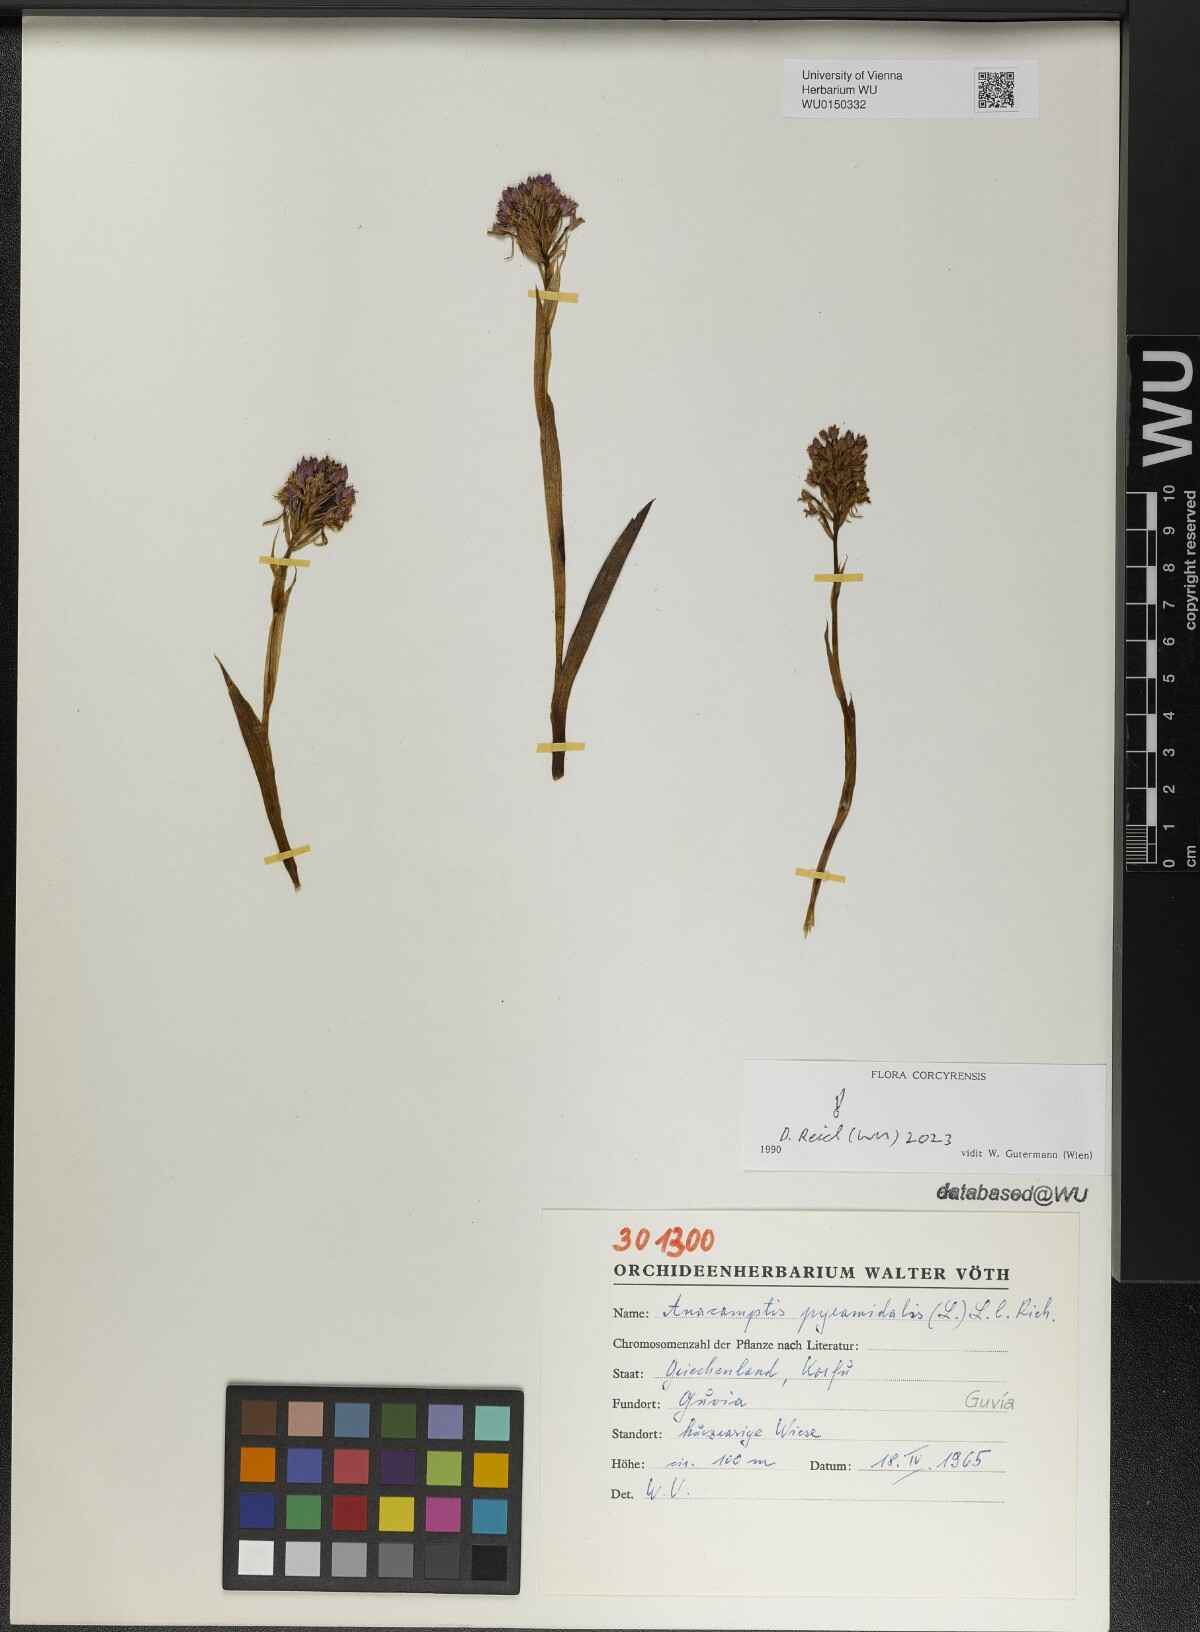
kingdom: Plantae
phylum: Tracheophyta
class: Liliopsida
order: Asparagales
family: Orchidaceae
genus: Anacamptis
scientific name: Anacamptis pyramidalis
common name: Pyramidal orchid
